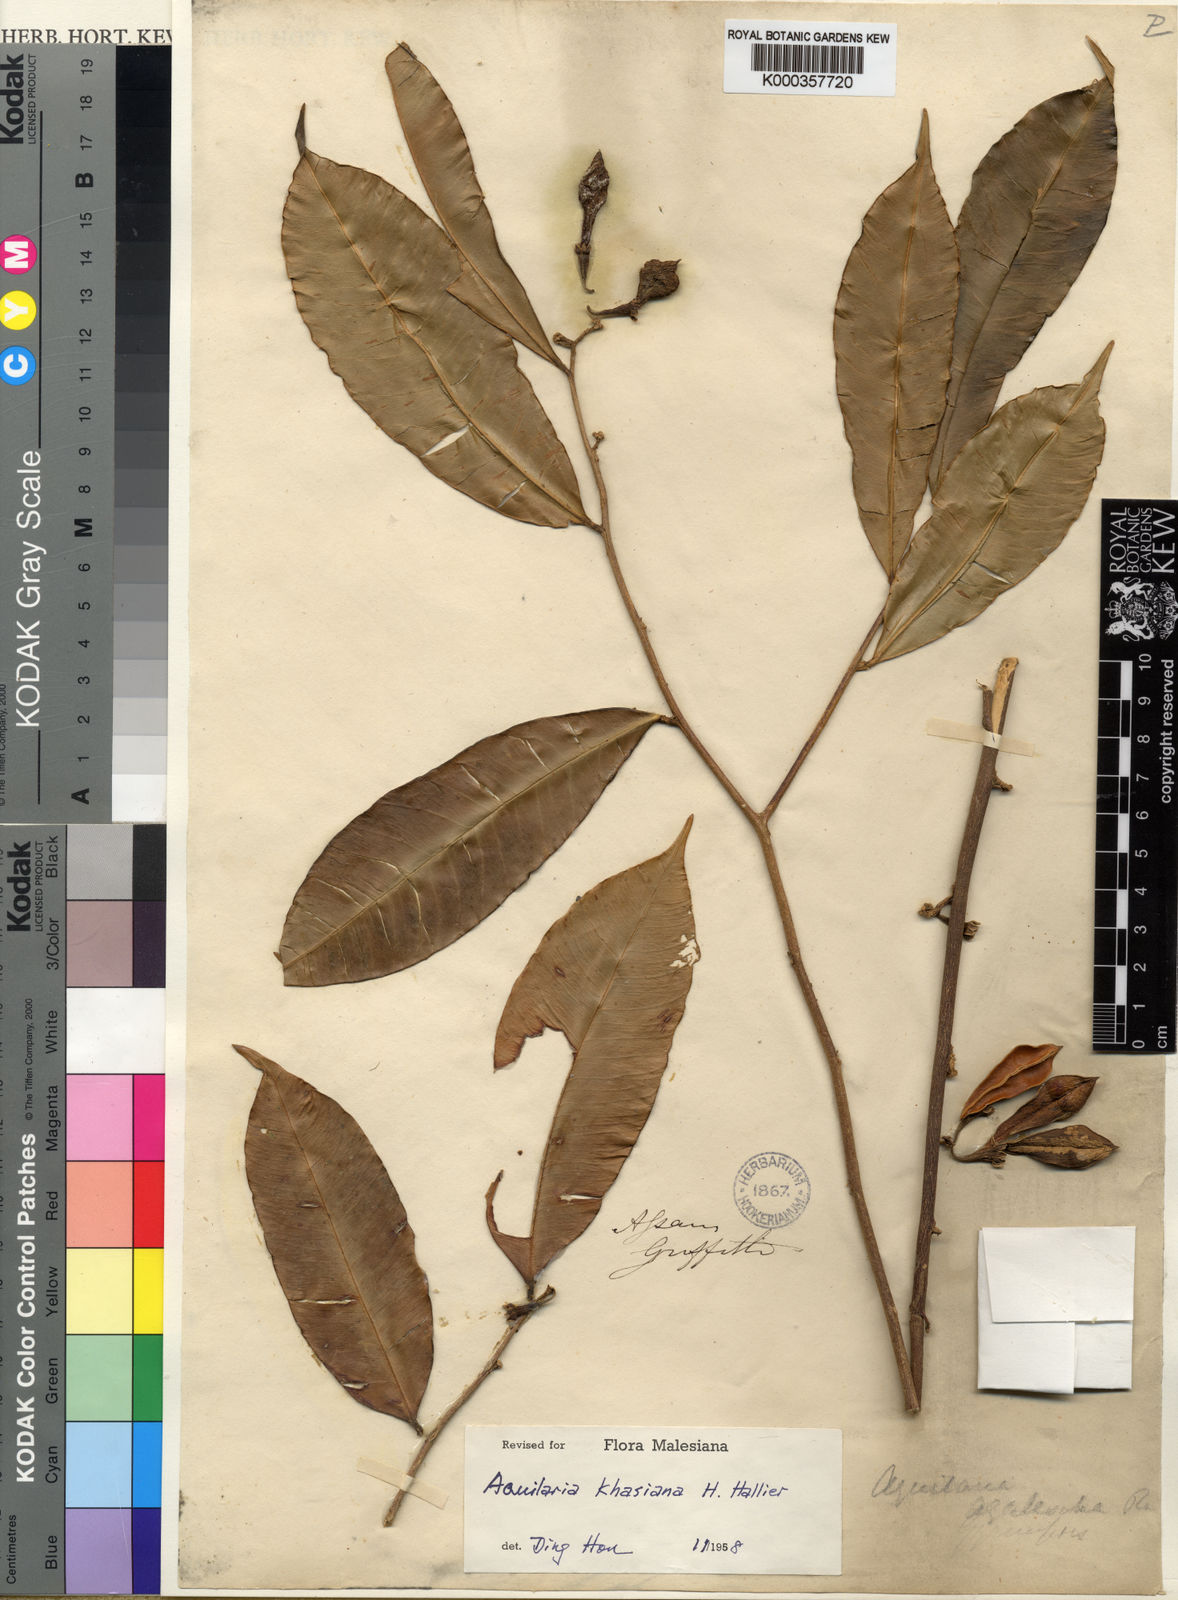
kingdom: Plantae
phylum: Tracheophyta
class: Magnoliopsida
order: Malvales
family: Thymelaeaceae
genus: Aquilaria
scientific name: Aquilaria khasiana
